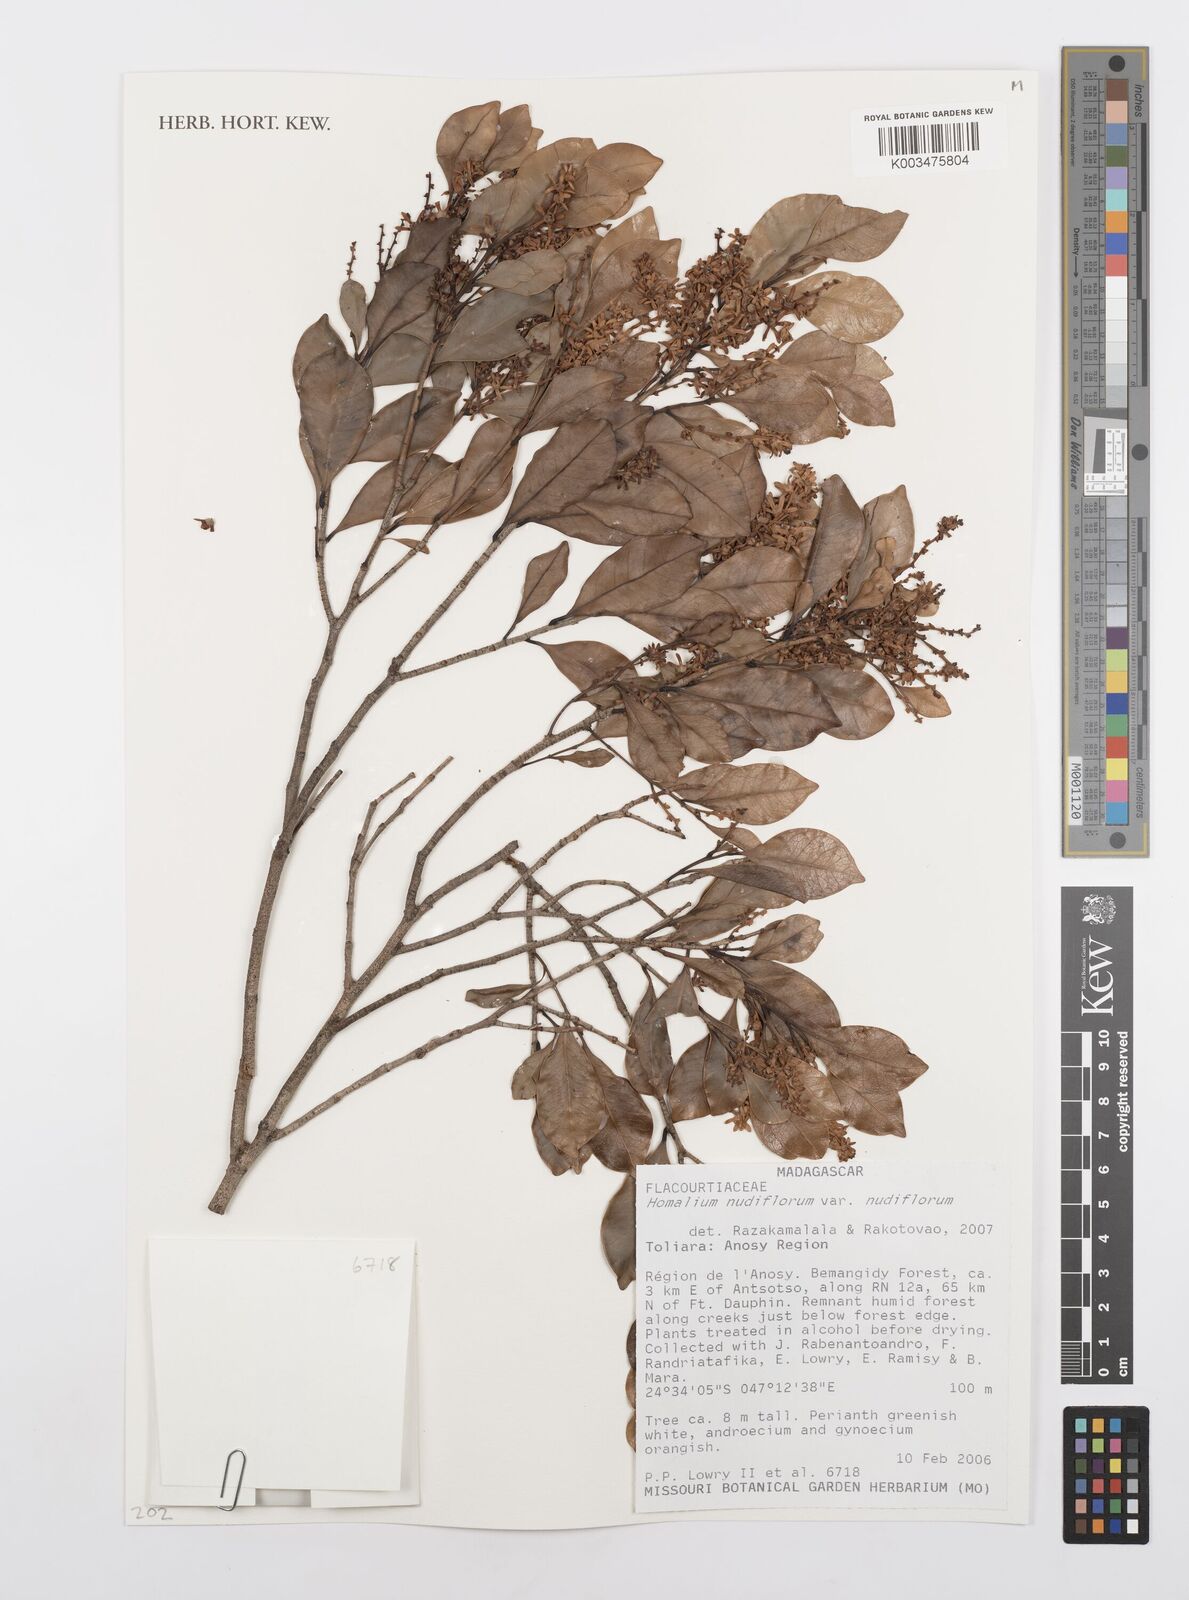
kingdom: Plantae
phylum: Tracheophyta
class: Magnoliopsida
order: Malpighiales
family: Salicaceae
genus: Homalium
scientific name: Homalium nudiflorum
